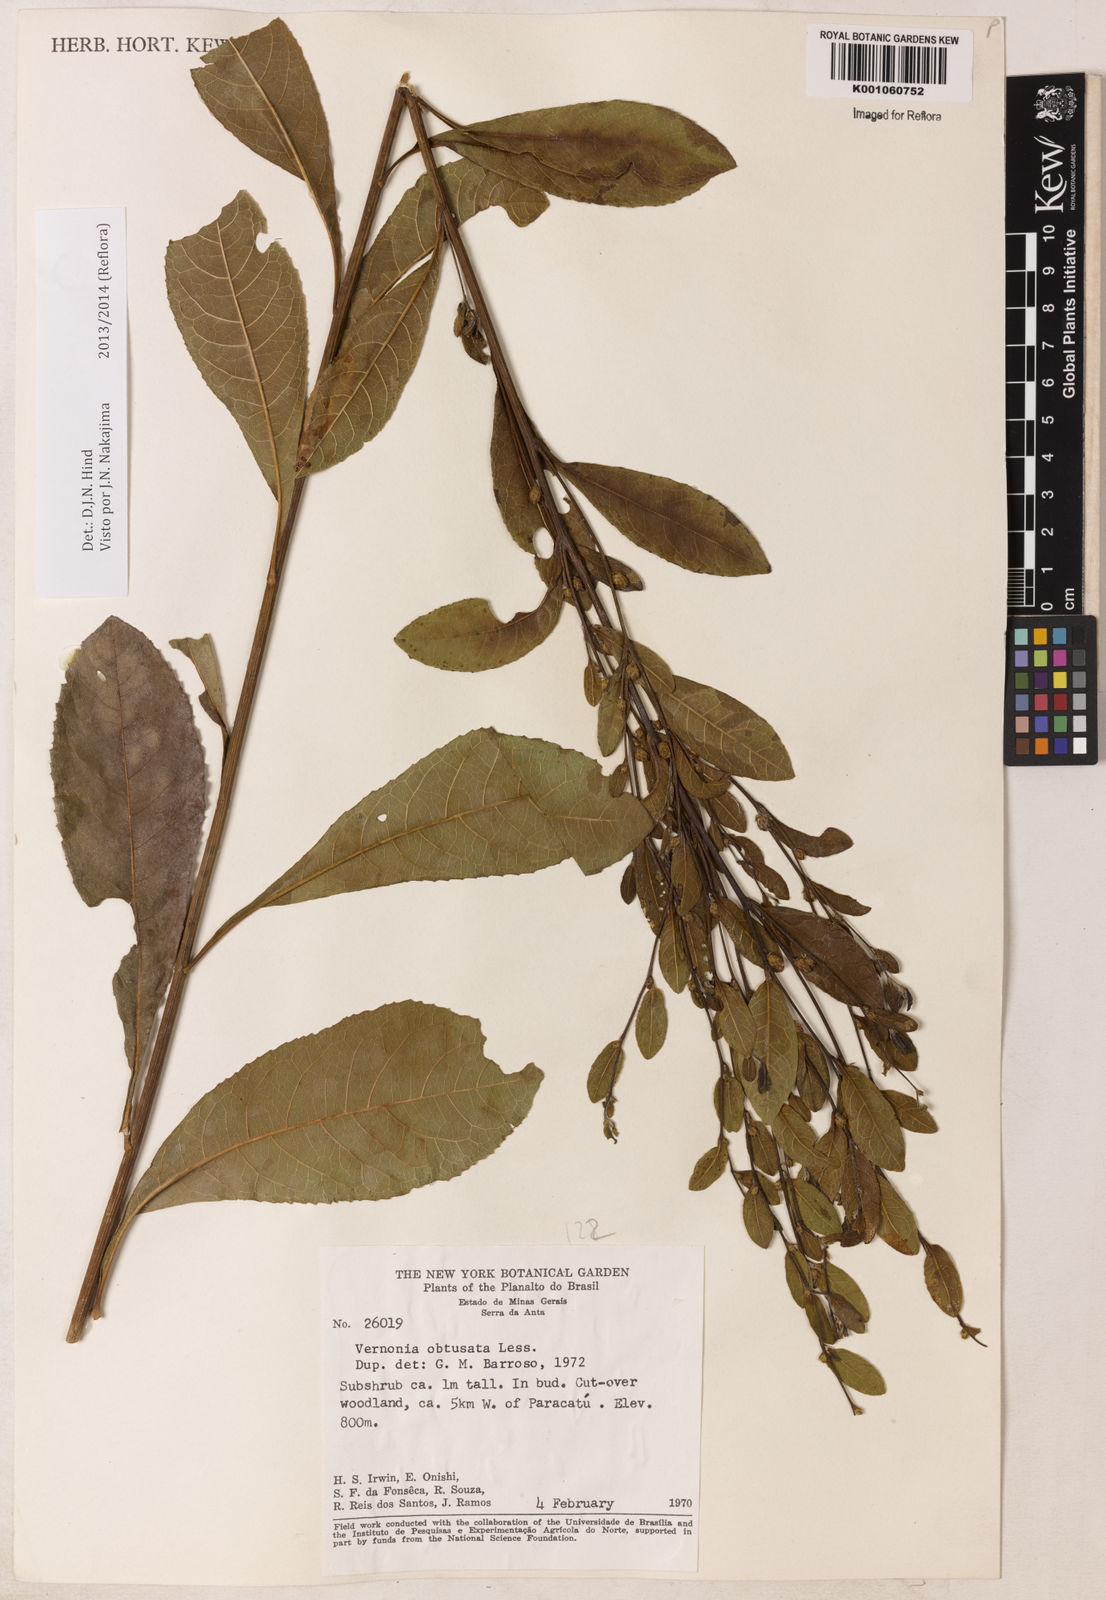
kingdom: Plantae
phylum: Tracheophyta
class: Magnoliopsida
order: Asterales
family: Asteraceae
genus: Lessingianthus
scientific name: Lessingianthus obtusatus
